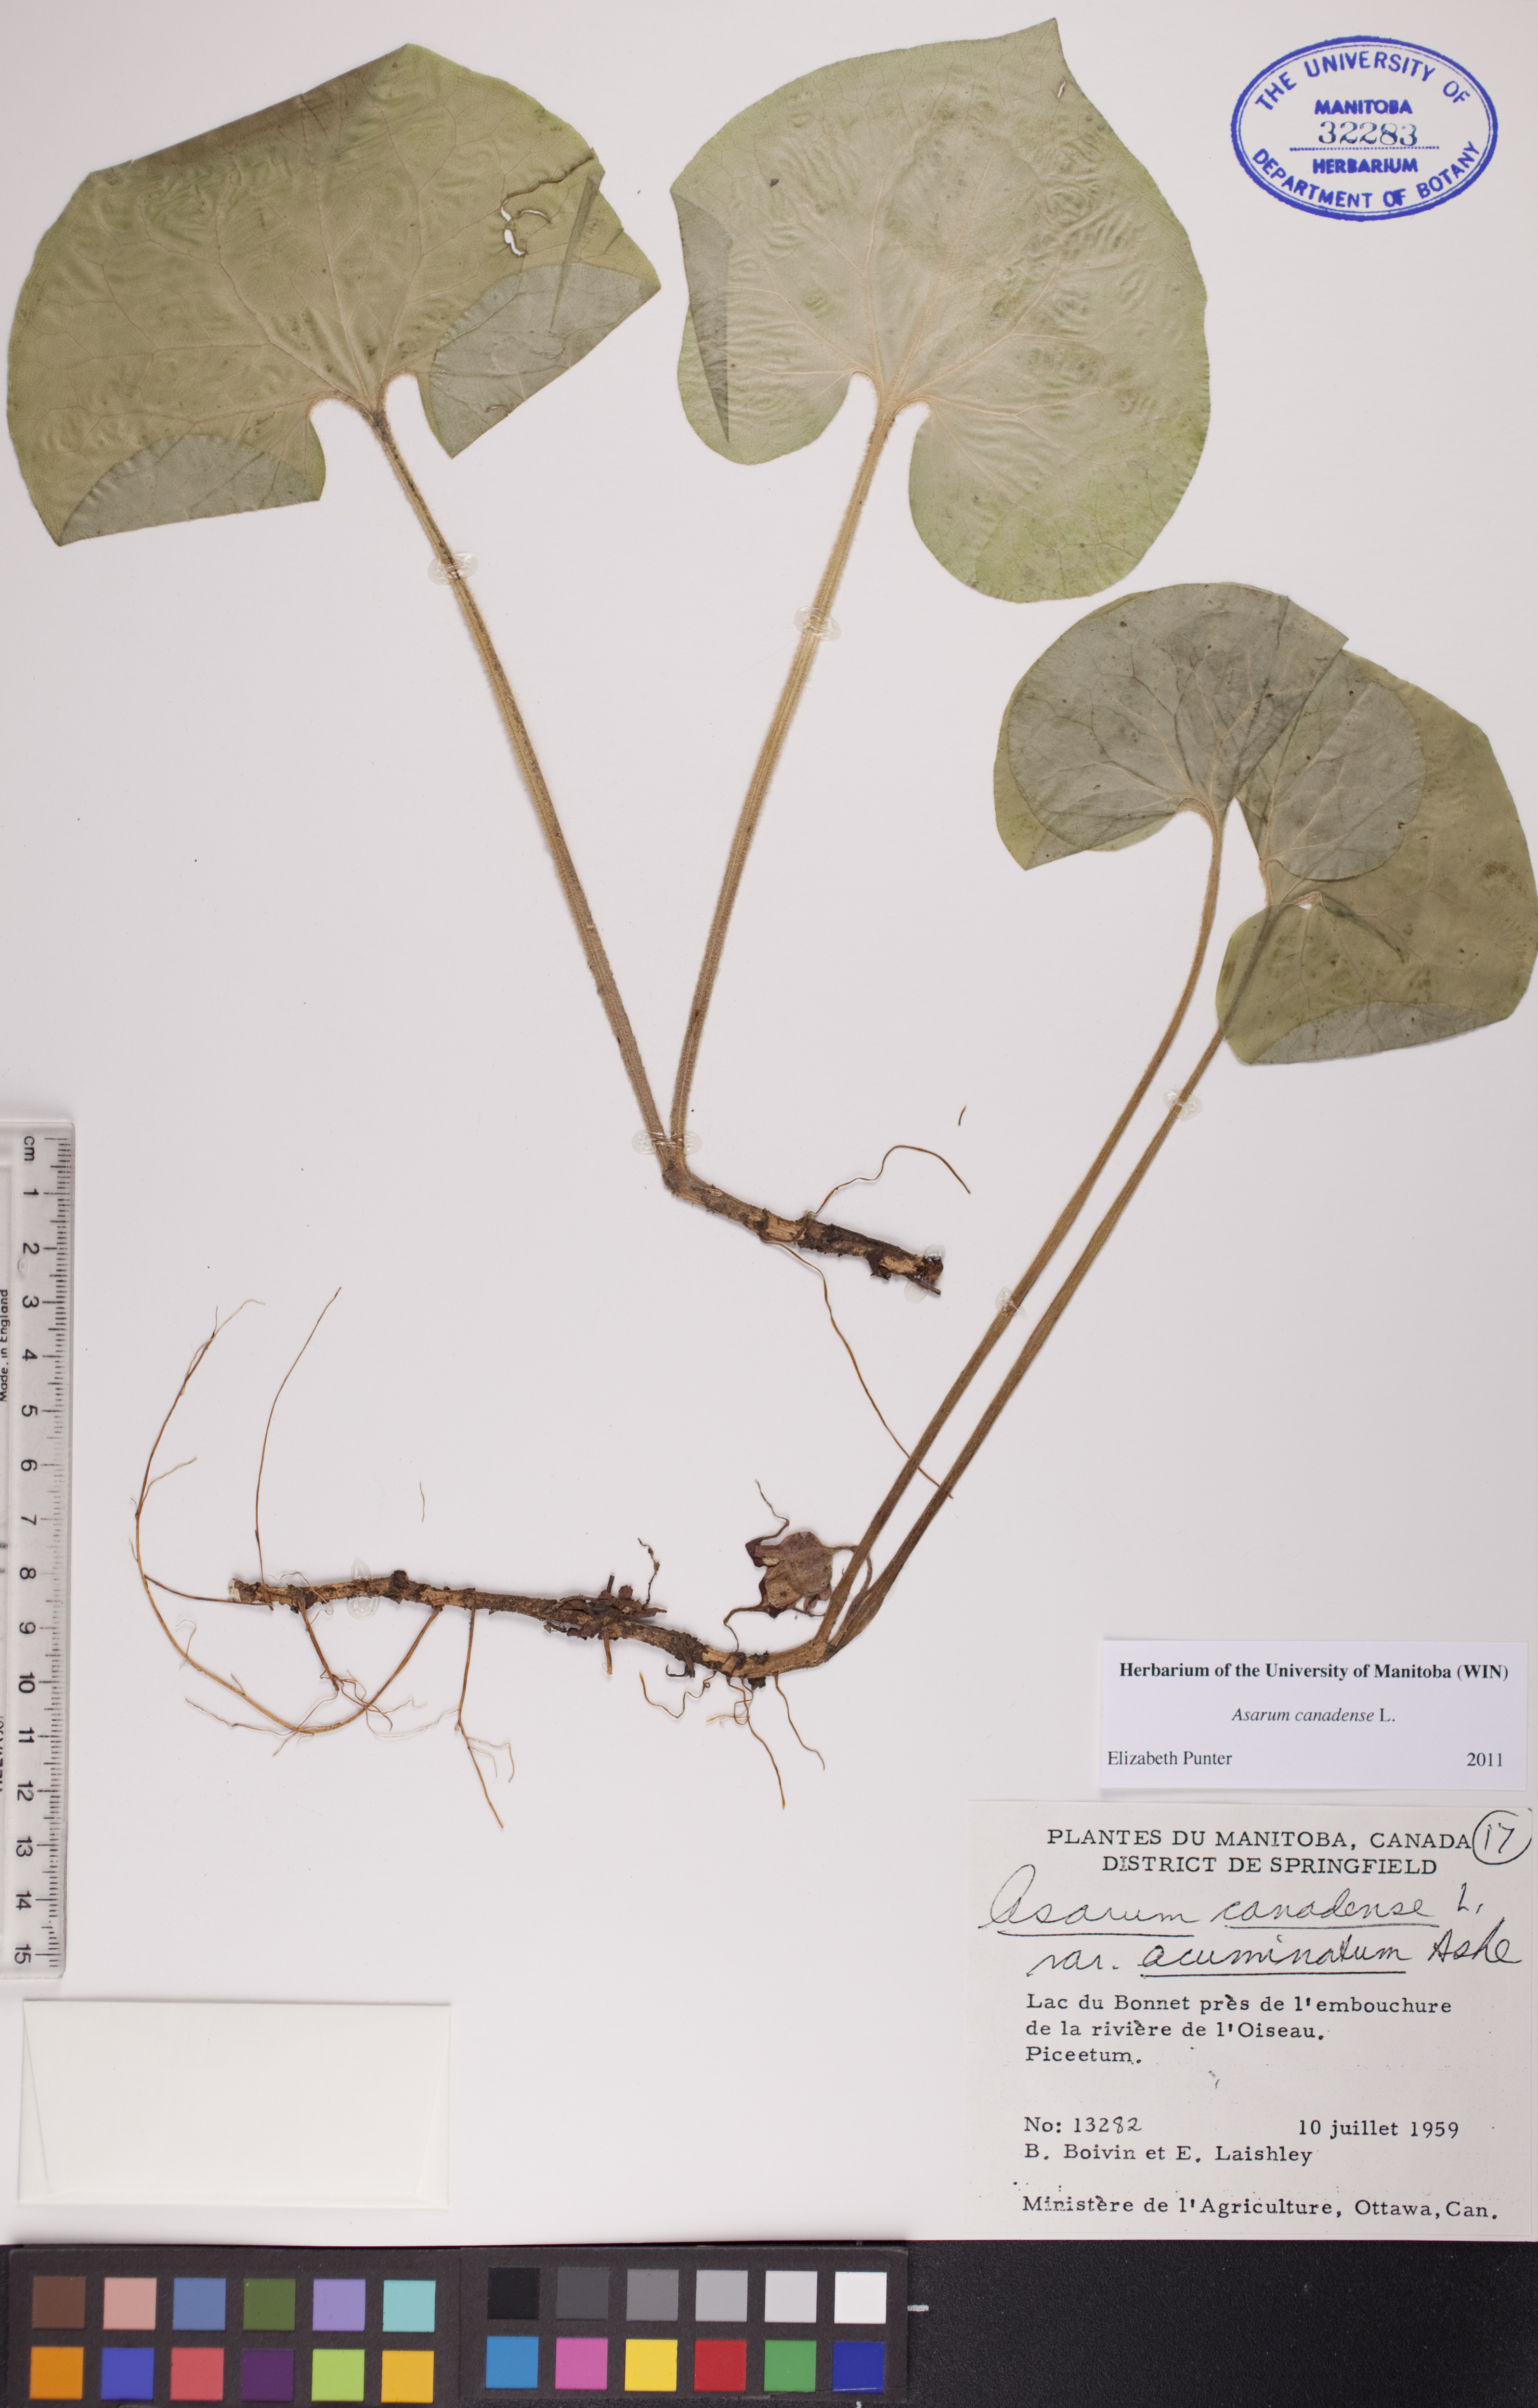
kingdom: Plantae
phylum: Tracheophyta
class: Magnoliopsida
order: Piperales
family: Aristolochiaceae
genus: Asarum
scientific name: Asarum canadense
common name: Wild ginger
